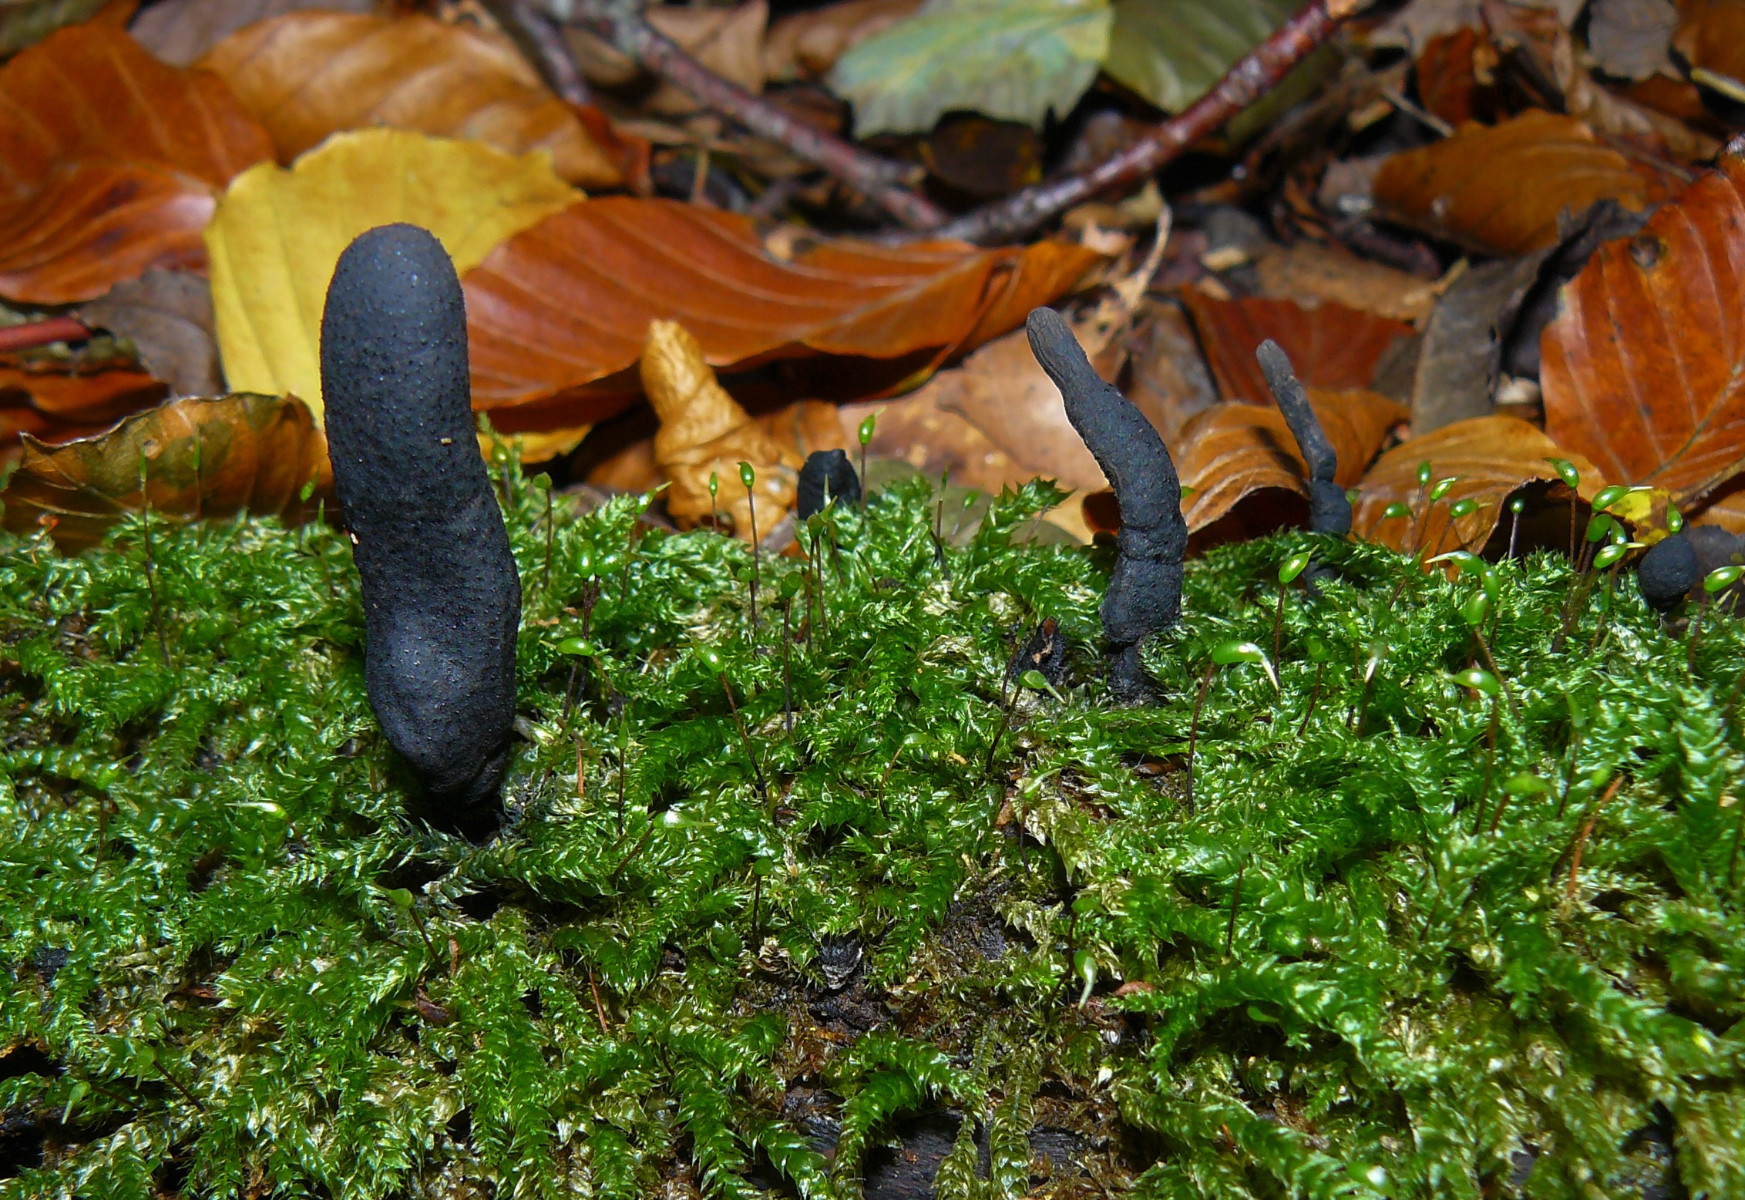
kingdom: Fungi
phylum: Ascomycota
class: Sordariomycetes
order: Xylariales
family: Xylariaceae
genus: Xylaria
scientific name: Xylaria longipes
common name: slank stødsvamp
